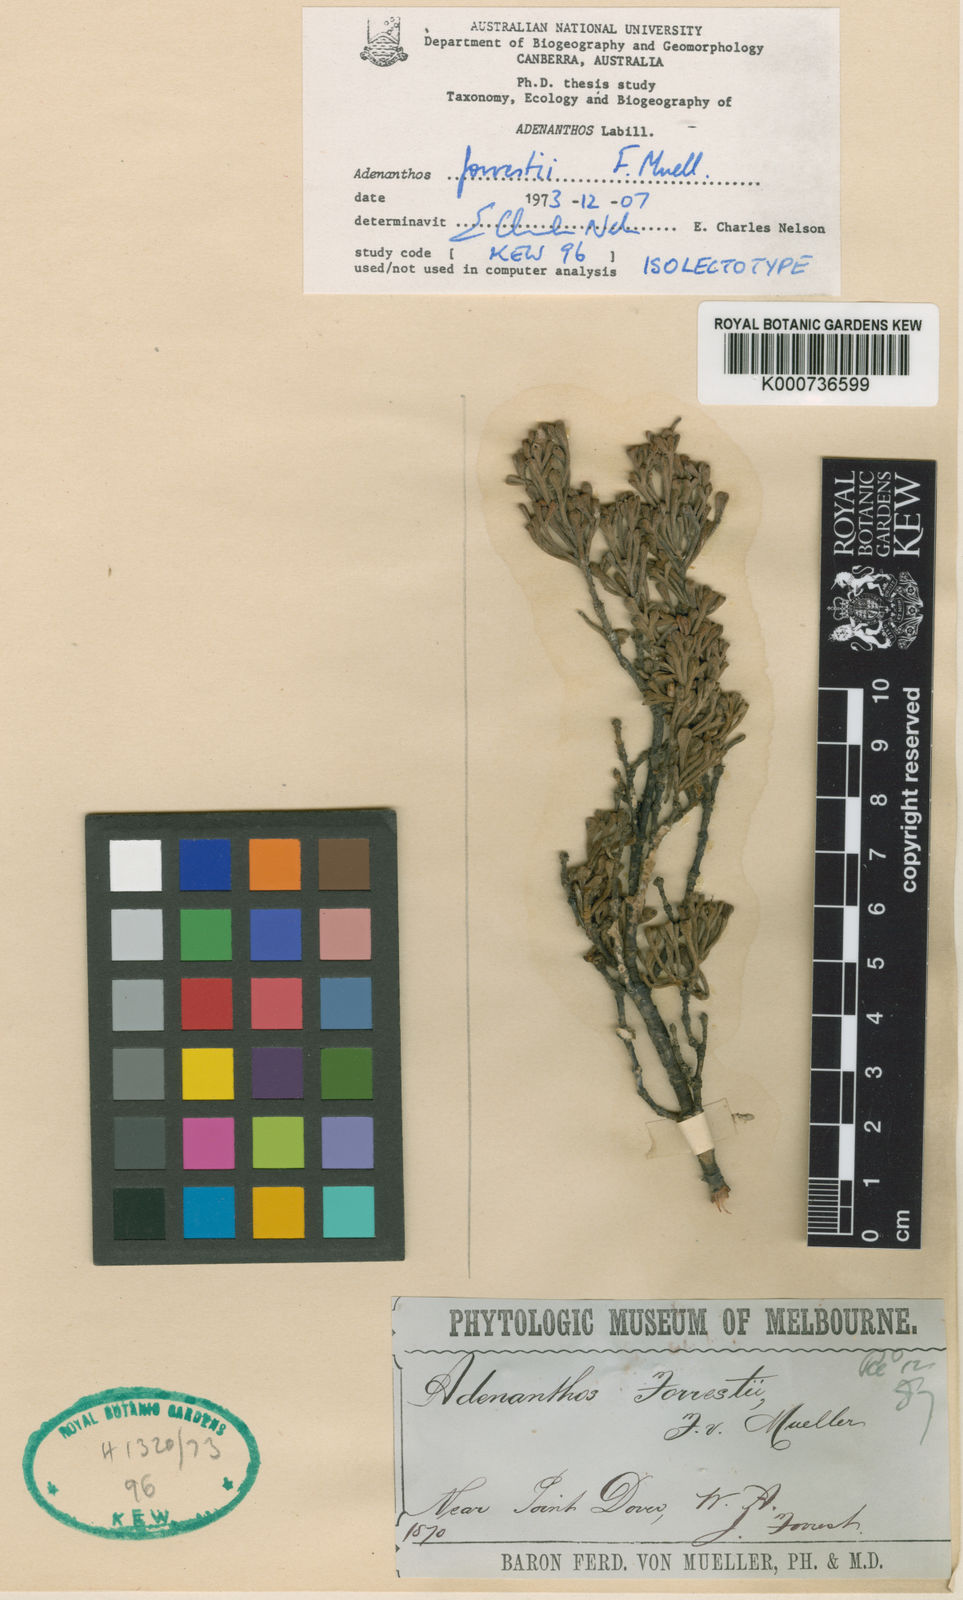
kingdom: Plantae
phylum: Tracheophyta
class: Magnoliopsida
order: Proteales
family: Proteaceae
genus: Adenanthos
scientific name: Adenanthos forrestii
